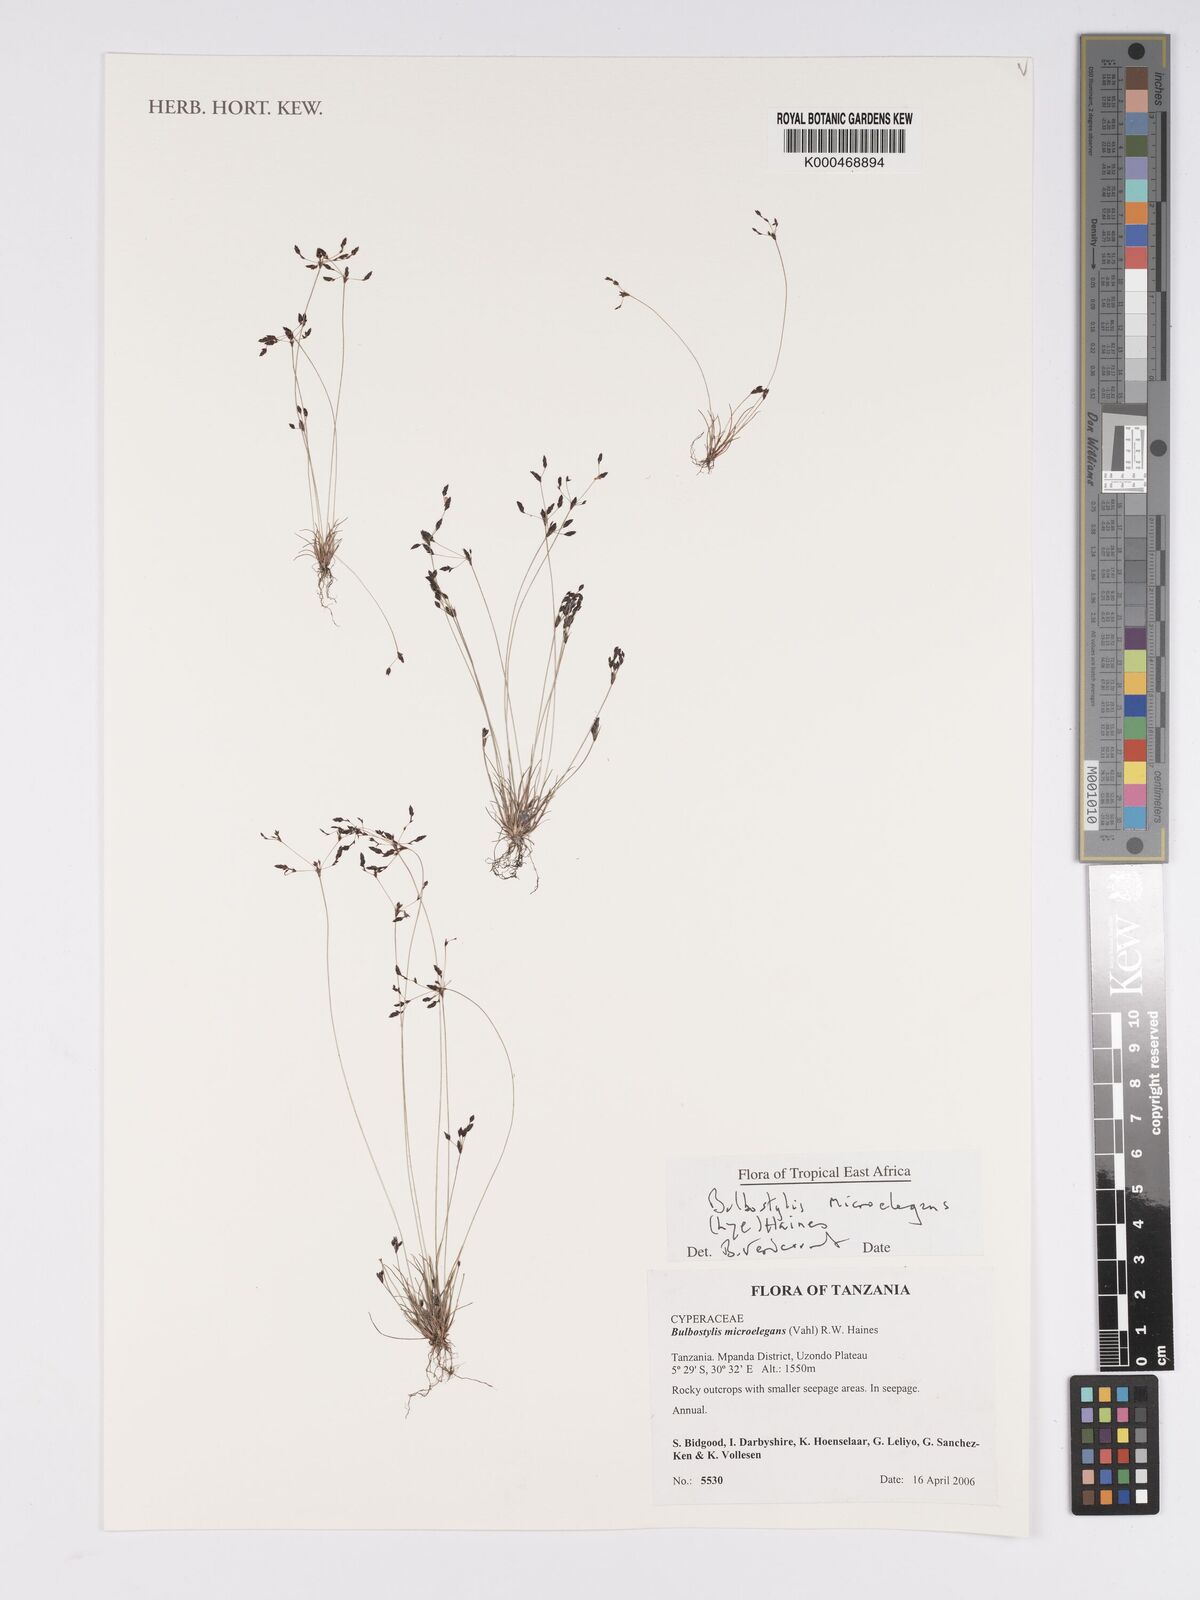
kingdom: Plantae
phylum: Tracheophyta
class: Liliopsida
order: Poales
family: Cyperaceae
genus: Bulbostylis
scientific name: Bulbostylis microelegans
